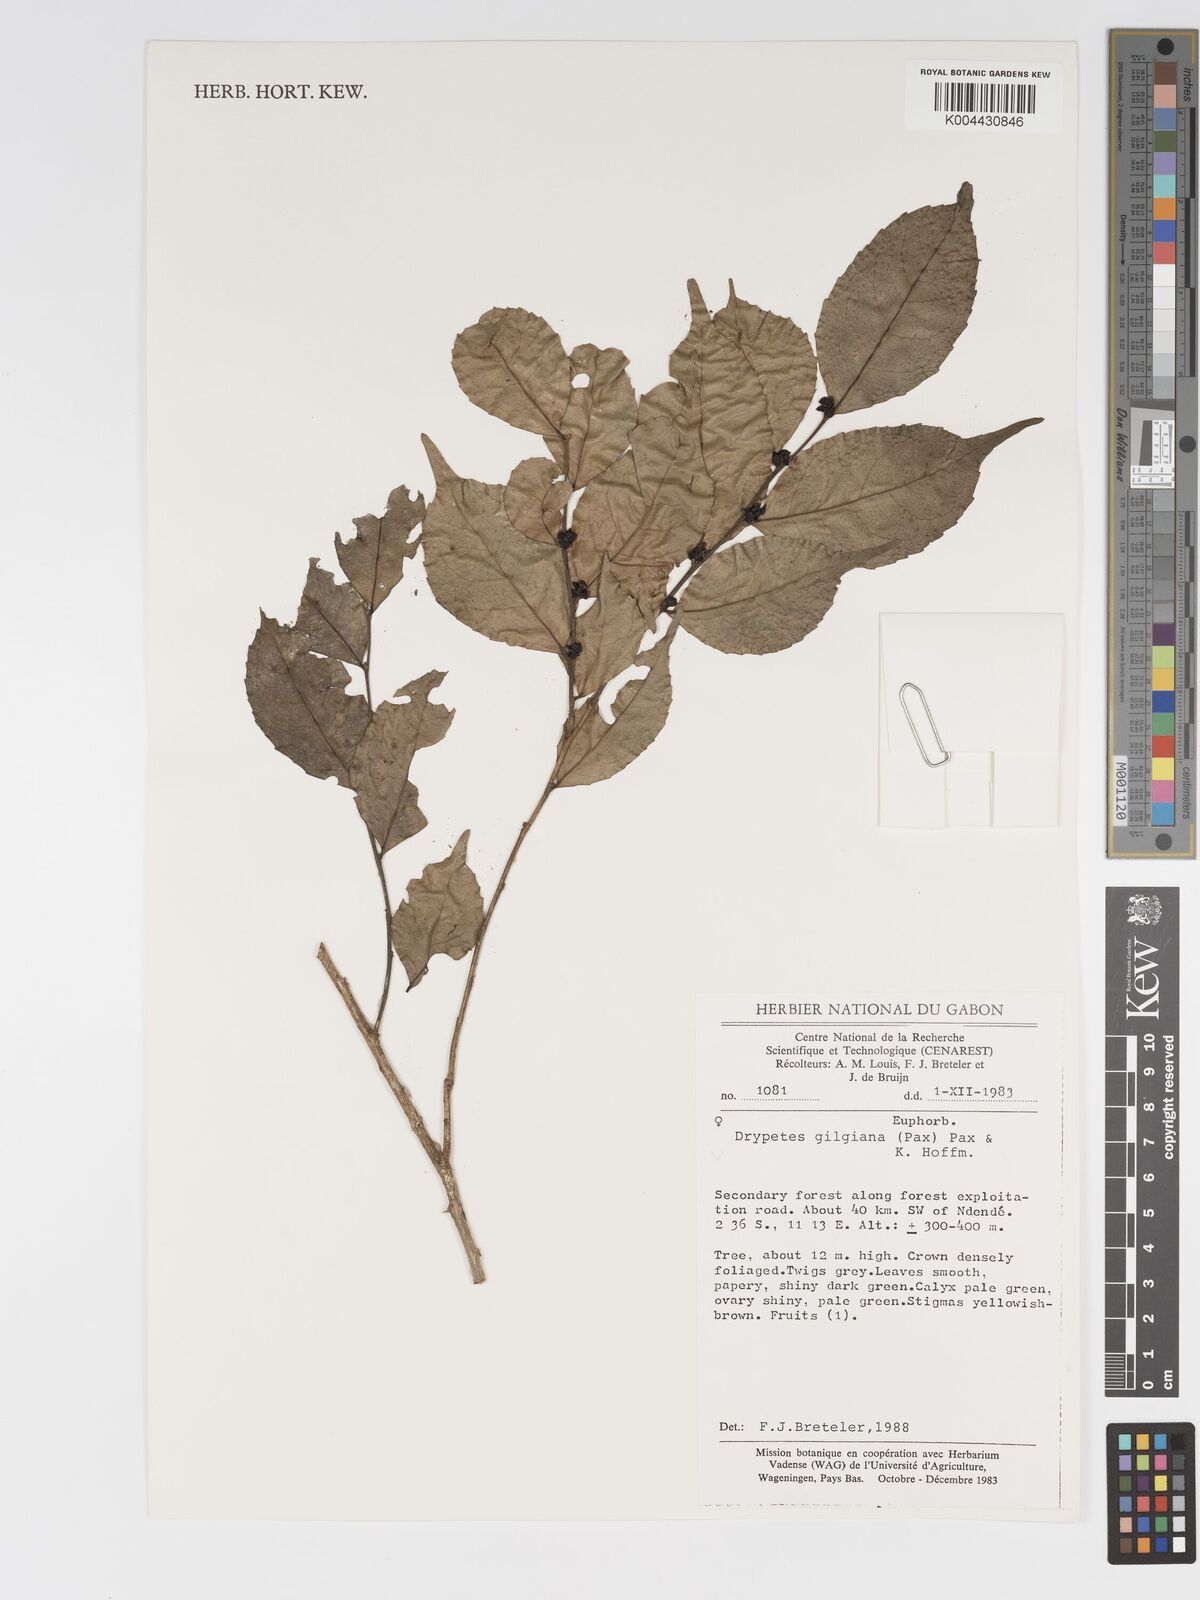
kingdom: Plantae
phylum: Tracheophyta
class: Magnoliopsida
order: Malpighiales
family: Putranjivaceae
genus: Drypetes
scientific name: Drypetes gilgiana
